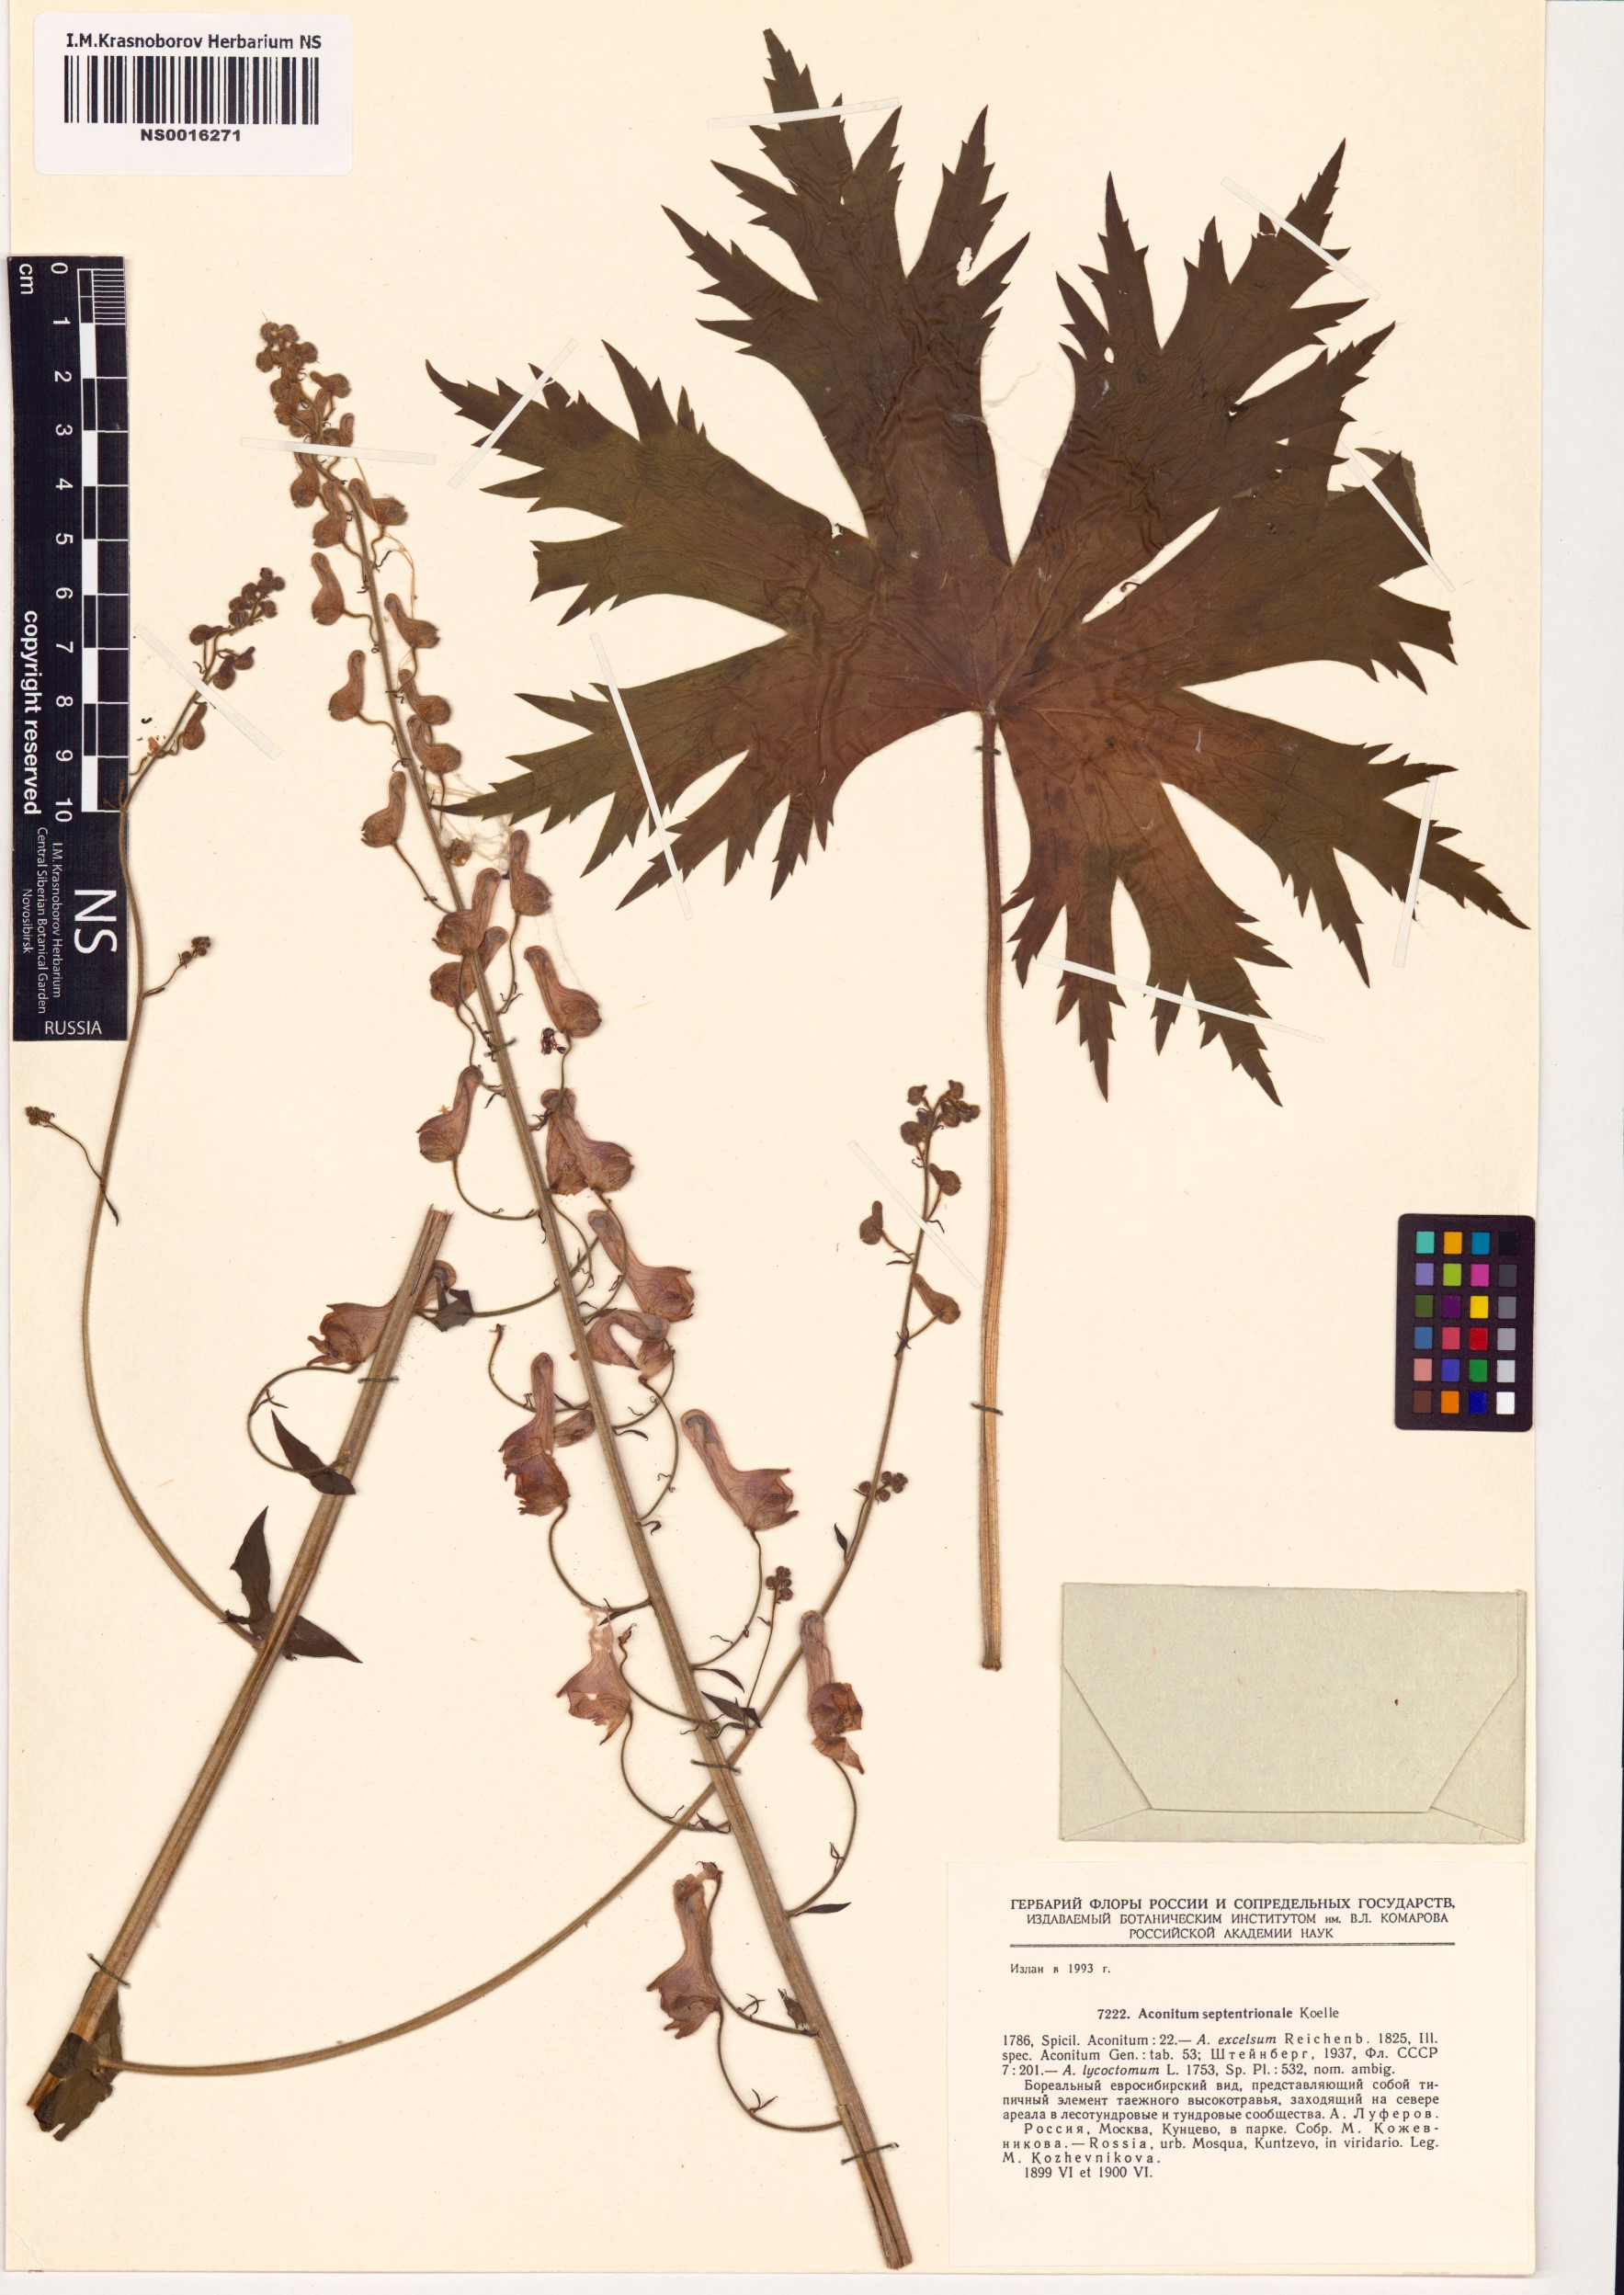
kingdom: Plantae
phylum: Tracheophyta
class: Magnoliopsida
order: Ranunculales
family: Ranunculaceae
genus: Aconitum
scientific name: Aconitum septentrionale
